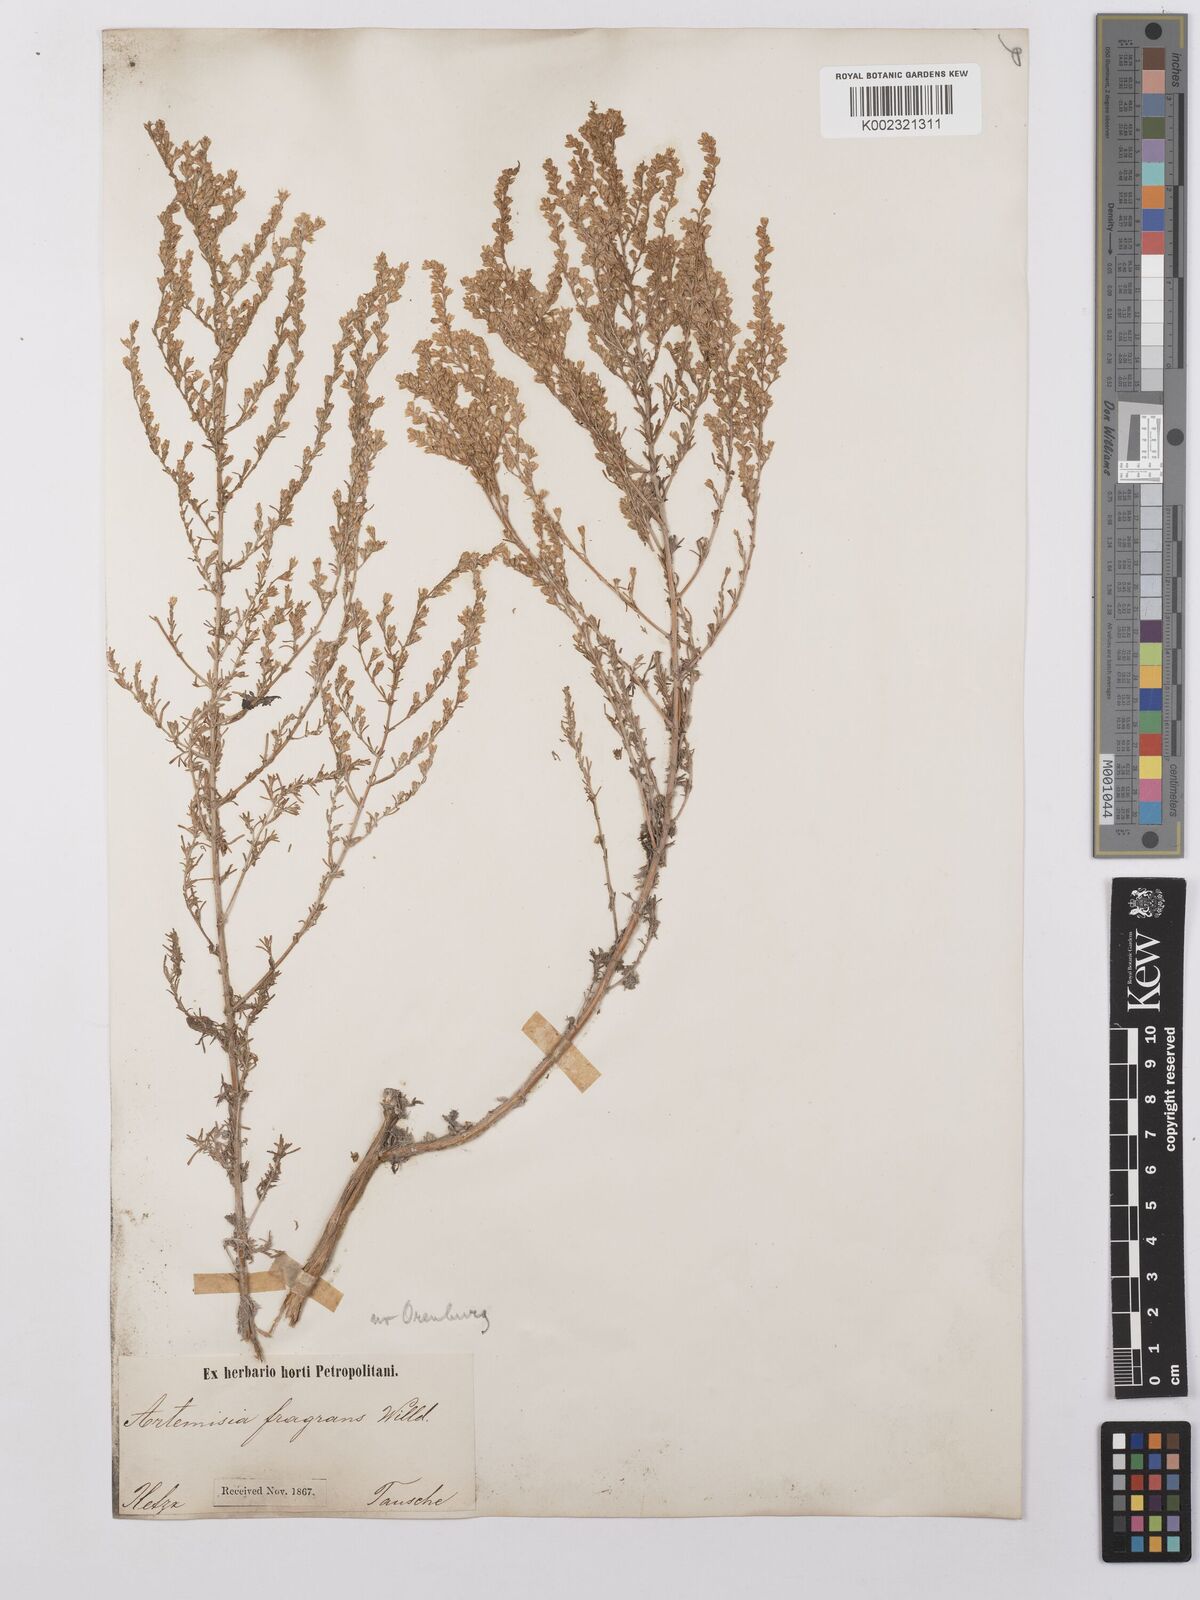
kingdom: Plantae
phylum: Tracheophyta
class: Magnoliopsida
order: Asterales
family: Asteraceae
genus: Artemisia
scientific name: Artemisia fragrans
